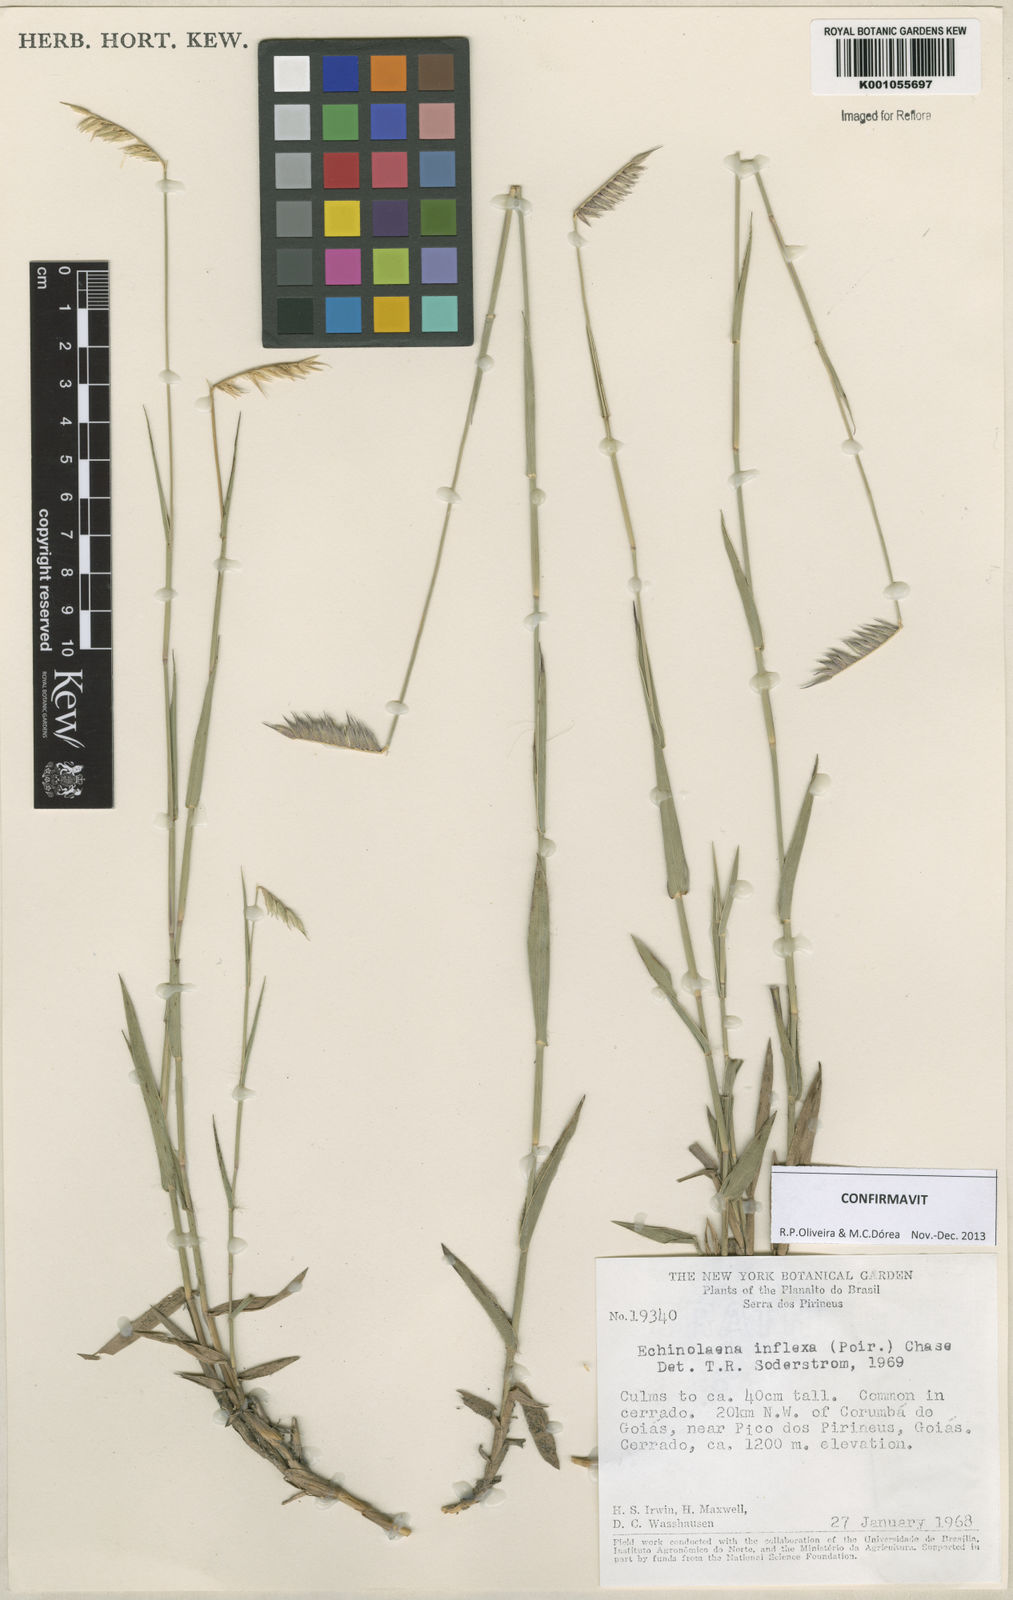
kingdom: Plantae
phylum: Tracheophyta
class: Liliopsida
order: Poales
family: Poaceae
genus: Echinolaena
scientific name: Echinolaena inflexa
